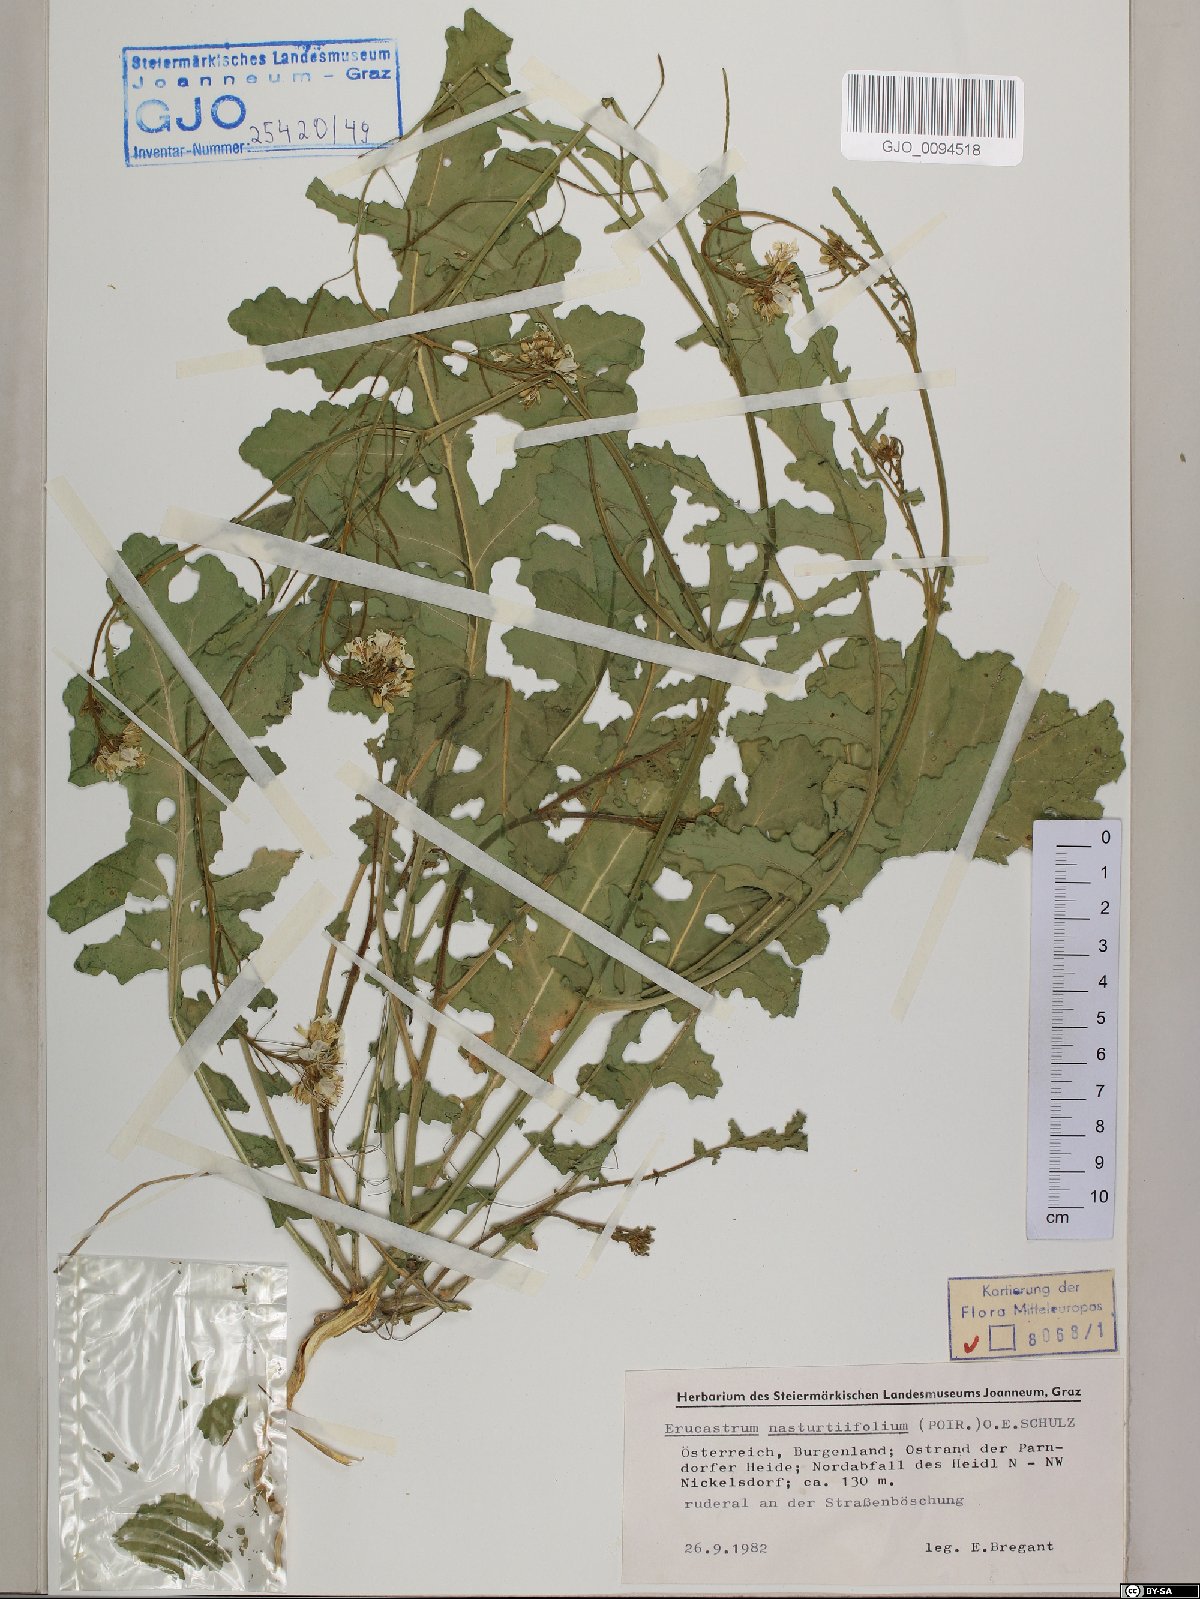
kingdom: Plantae
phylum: Tracheophyta
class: Magnoliopsida
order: Brassicales
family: Brassicaceae
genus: Erucastrum
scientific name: Erucastrum nasturtiifolium
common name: Watercress-leaf rocket
